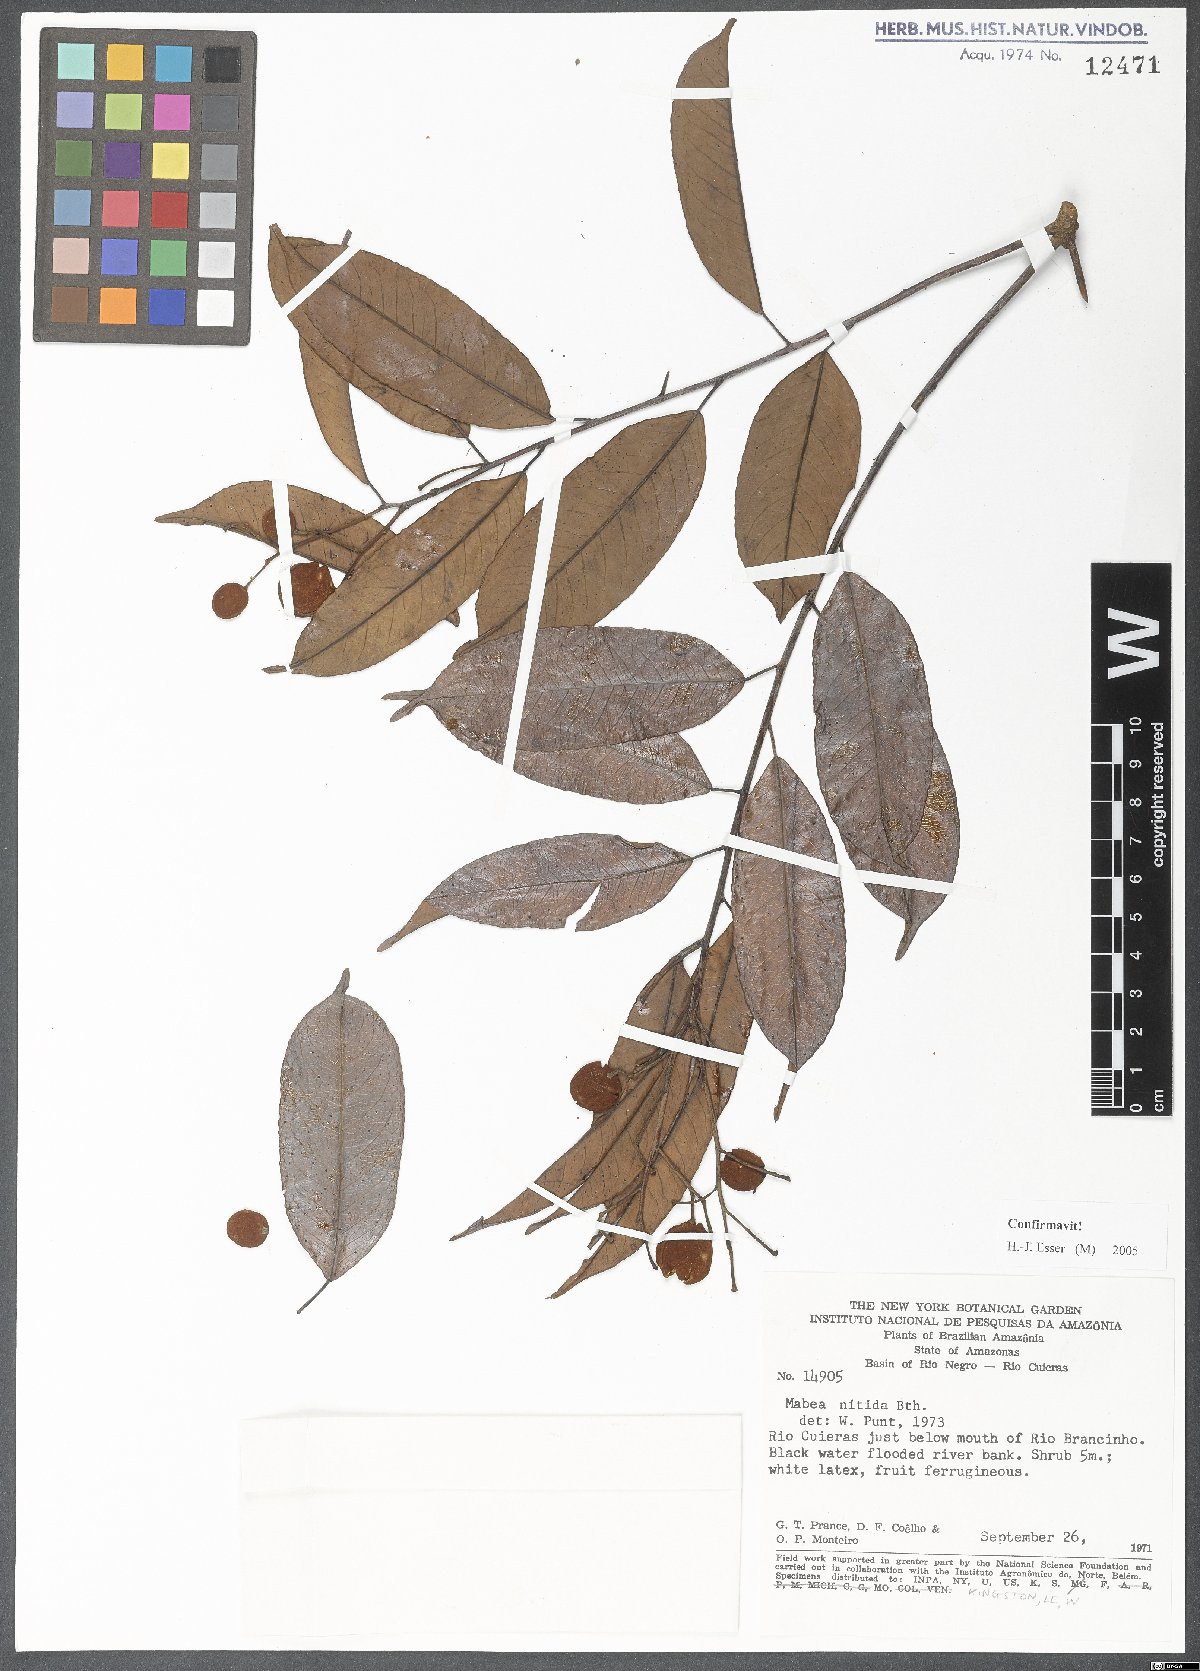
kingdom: Plantae
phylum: Tracheophyta
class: Magnoliopsida
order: Malpighiales
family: Euphorbiaceae
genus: Mabea
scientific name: Mabea nitida
